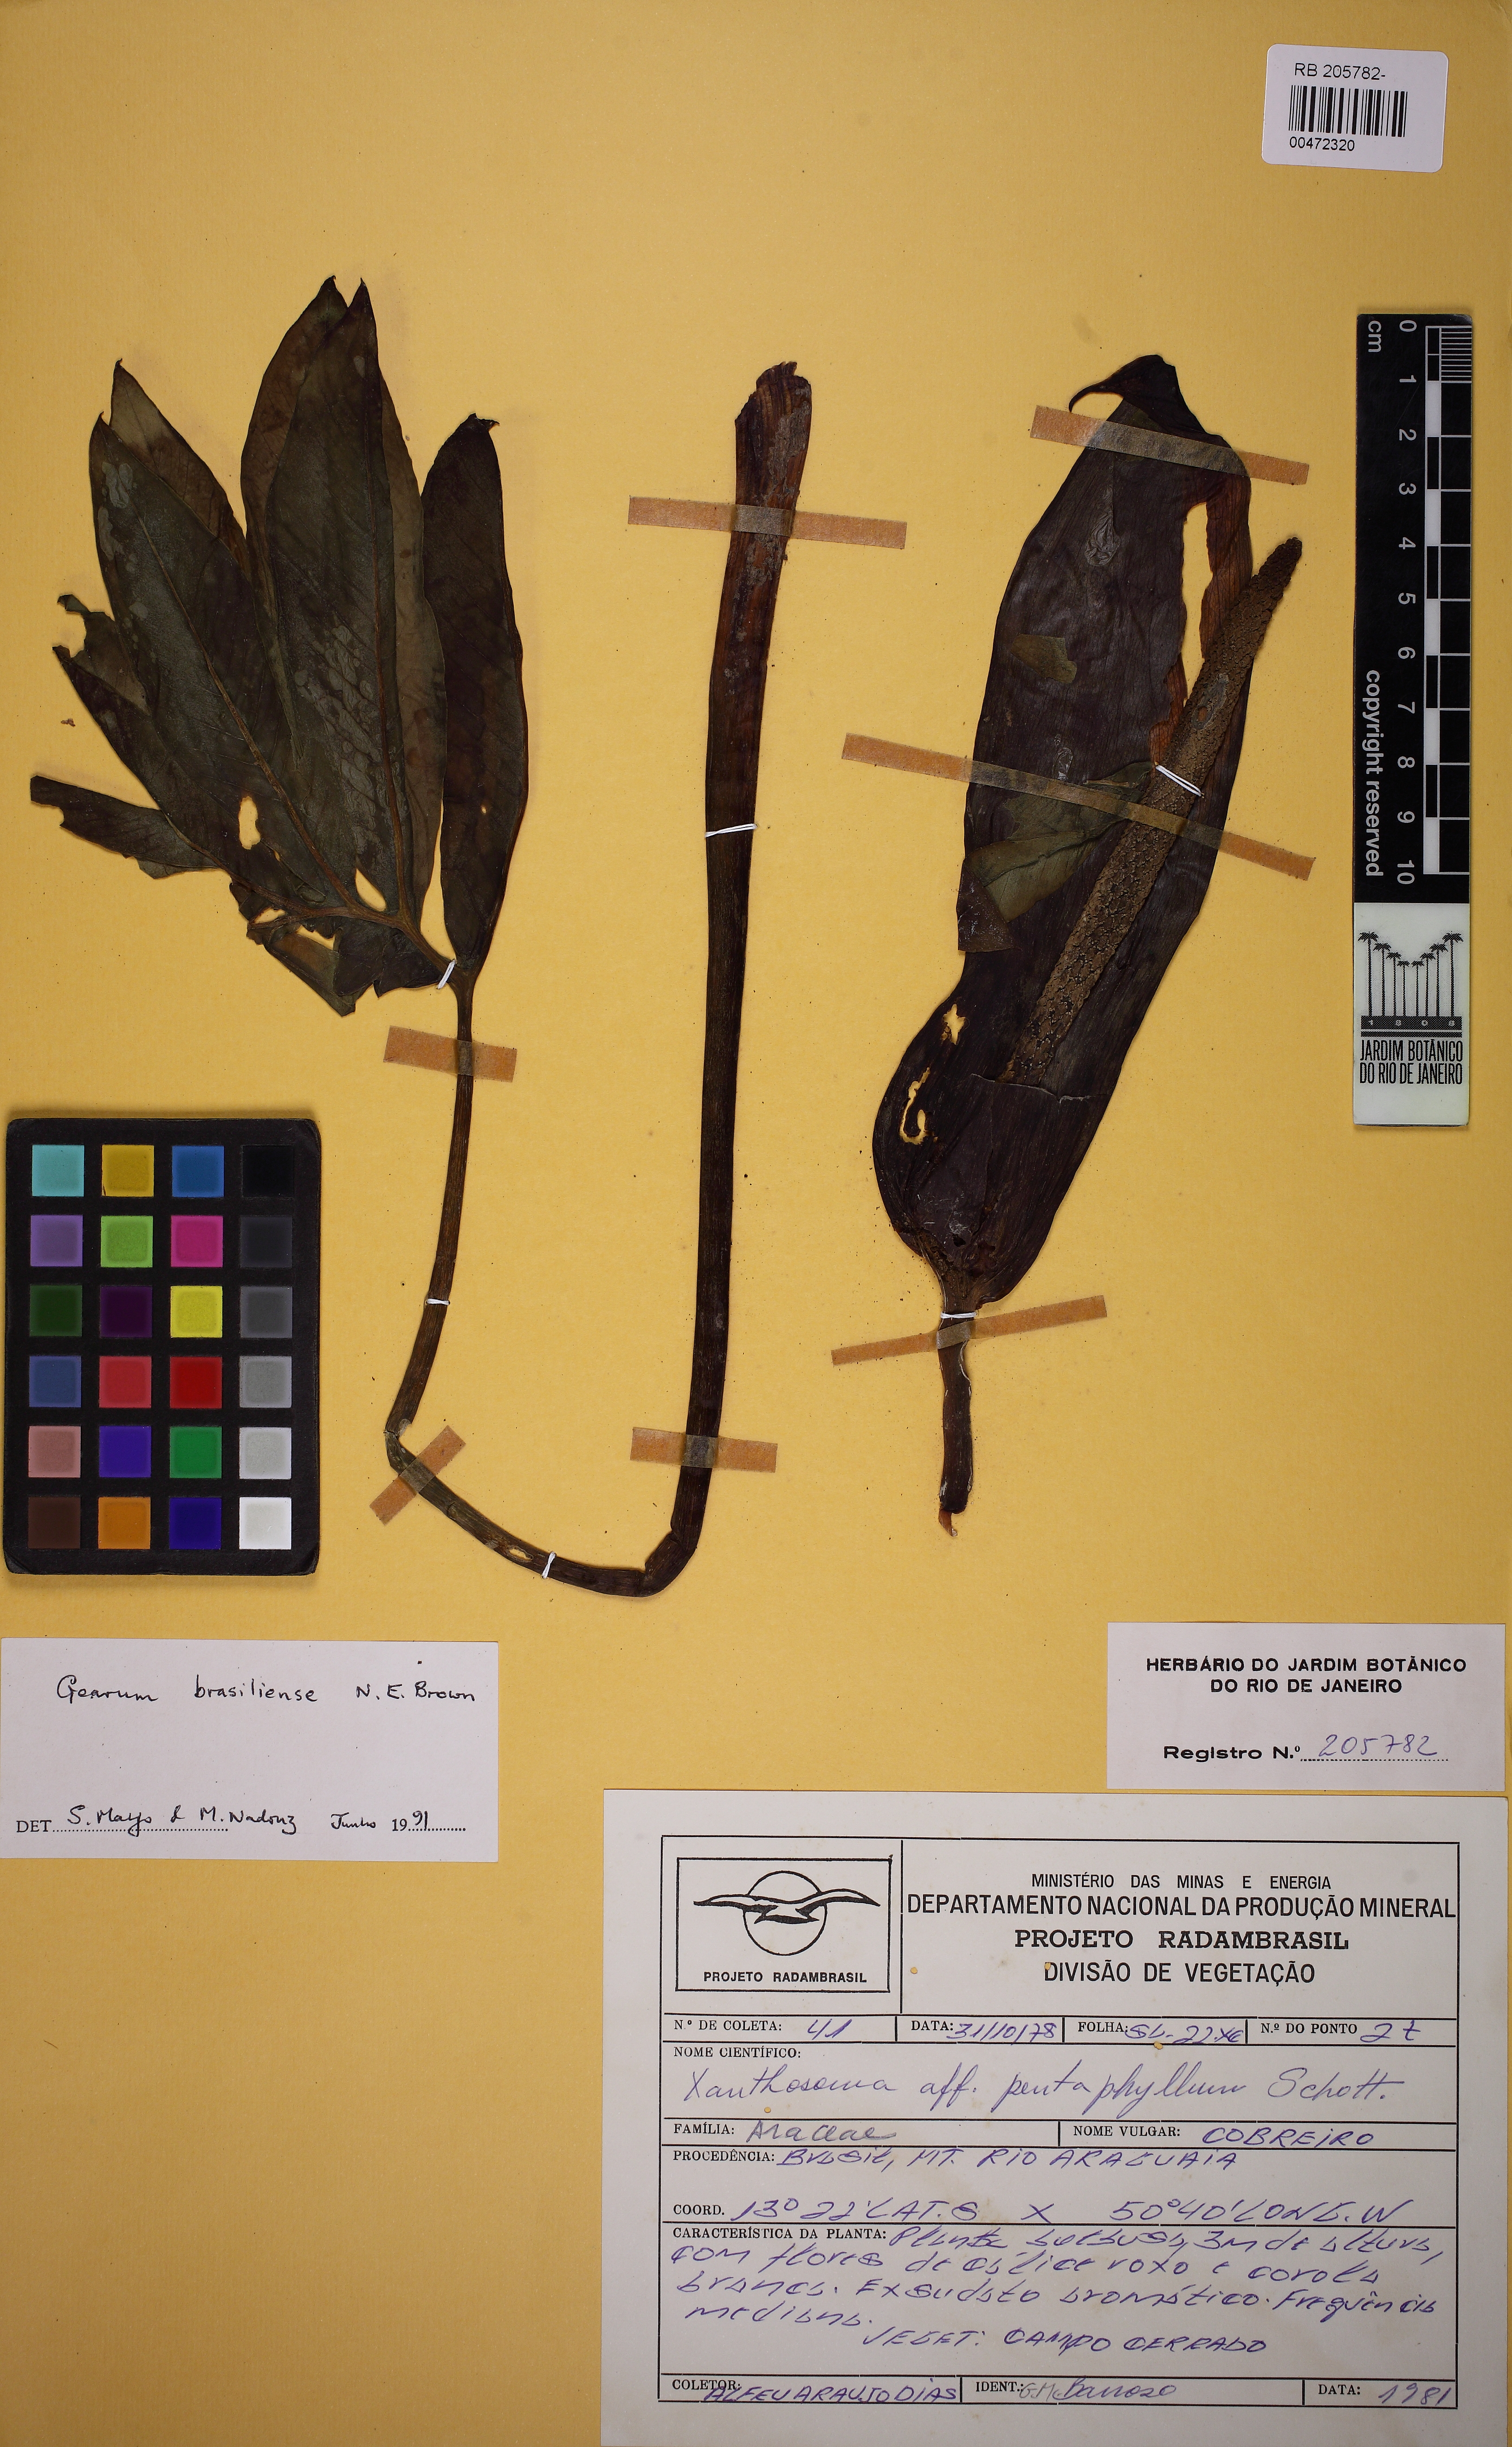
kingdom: Plantae
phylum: Tracheophyta
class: Liliopsida
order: Alismatales
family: Araceae
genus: Gearum
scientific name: Gearum brasiliense
